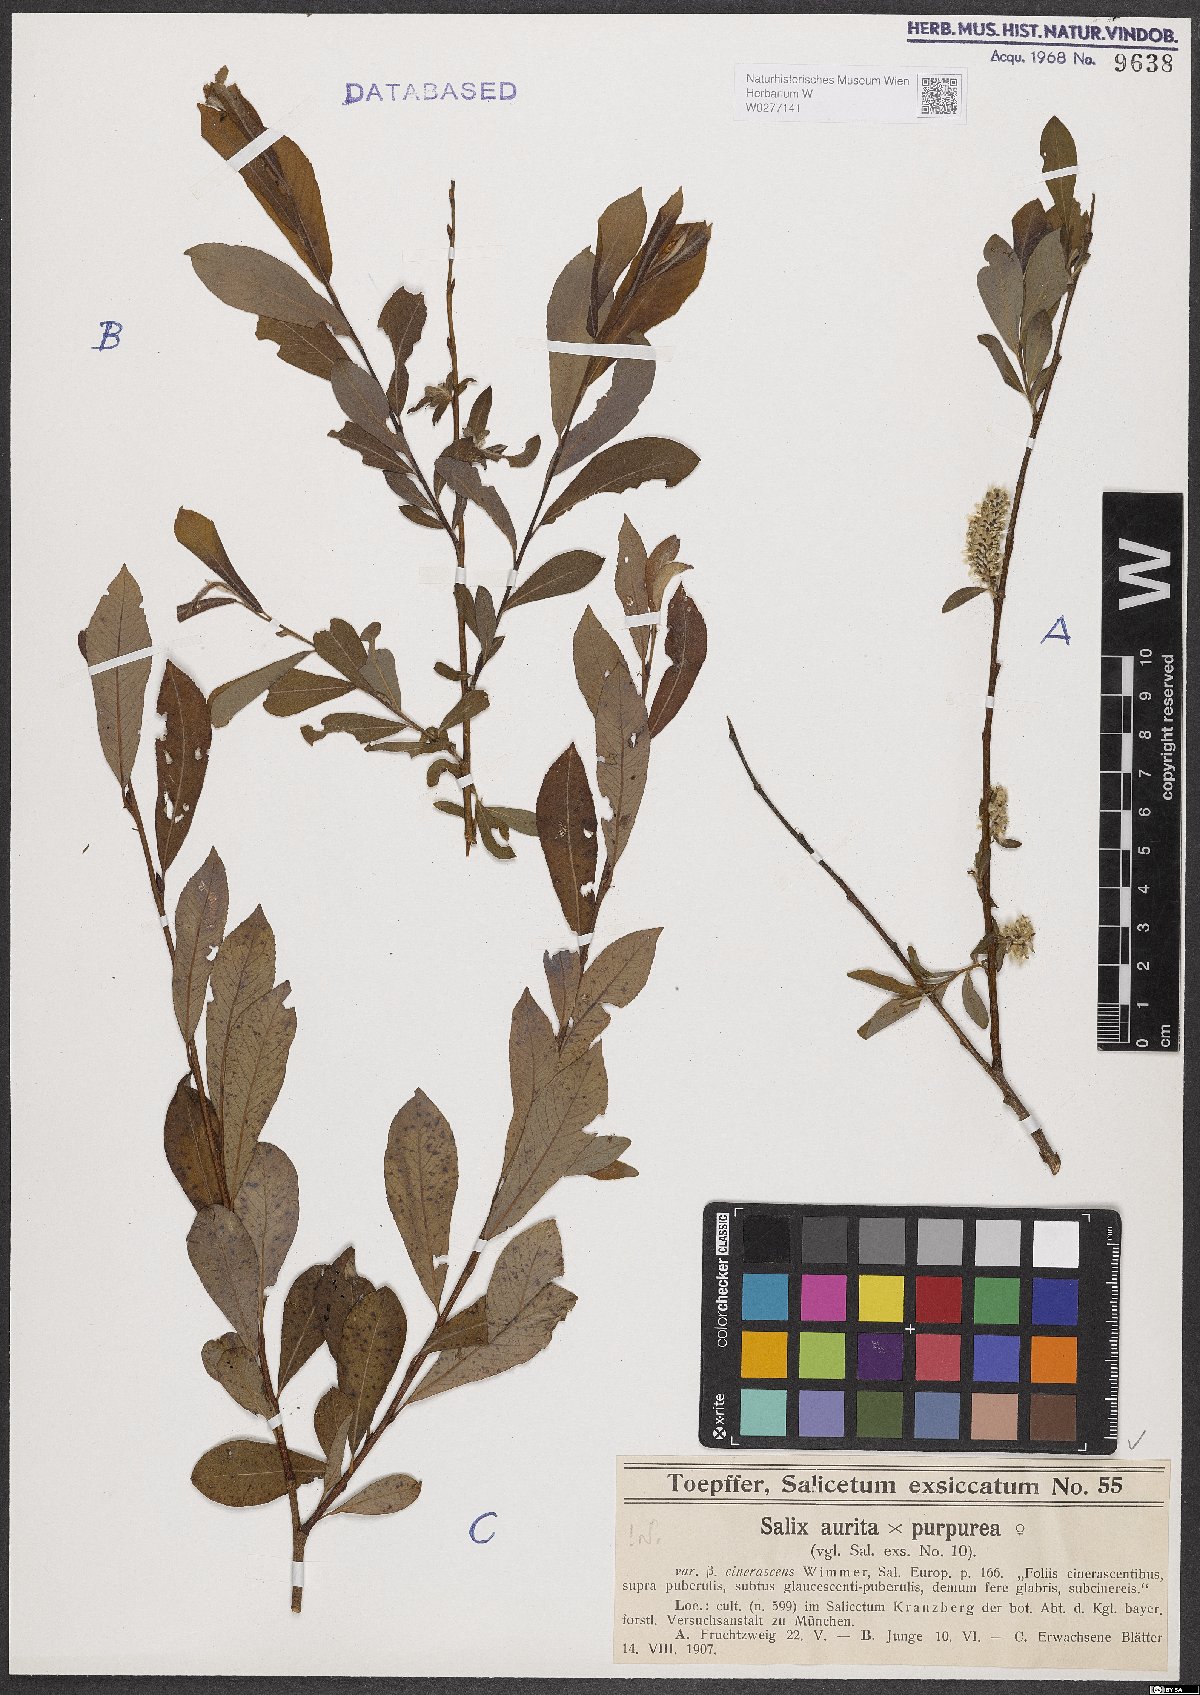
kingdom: Plantae
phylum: Tracheophyta
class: Magnoliopsida
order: Malpighiales
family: Salicaceae
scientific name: Salicaceae
